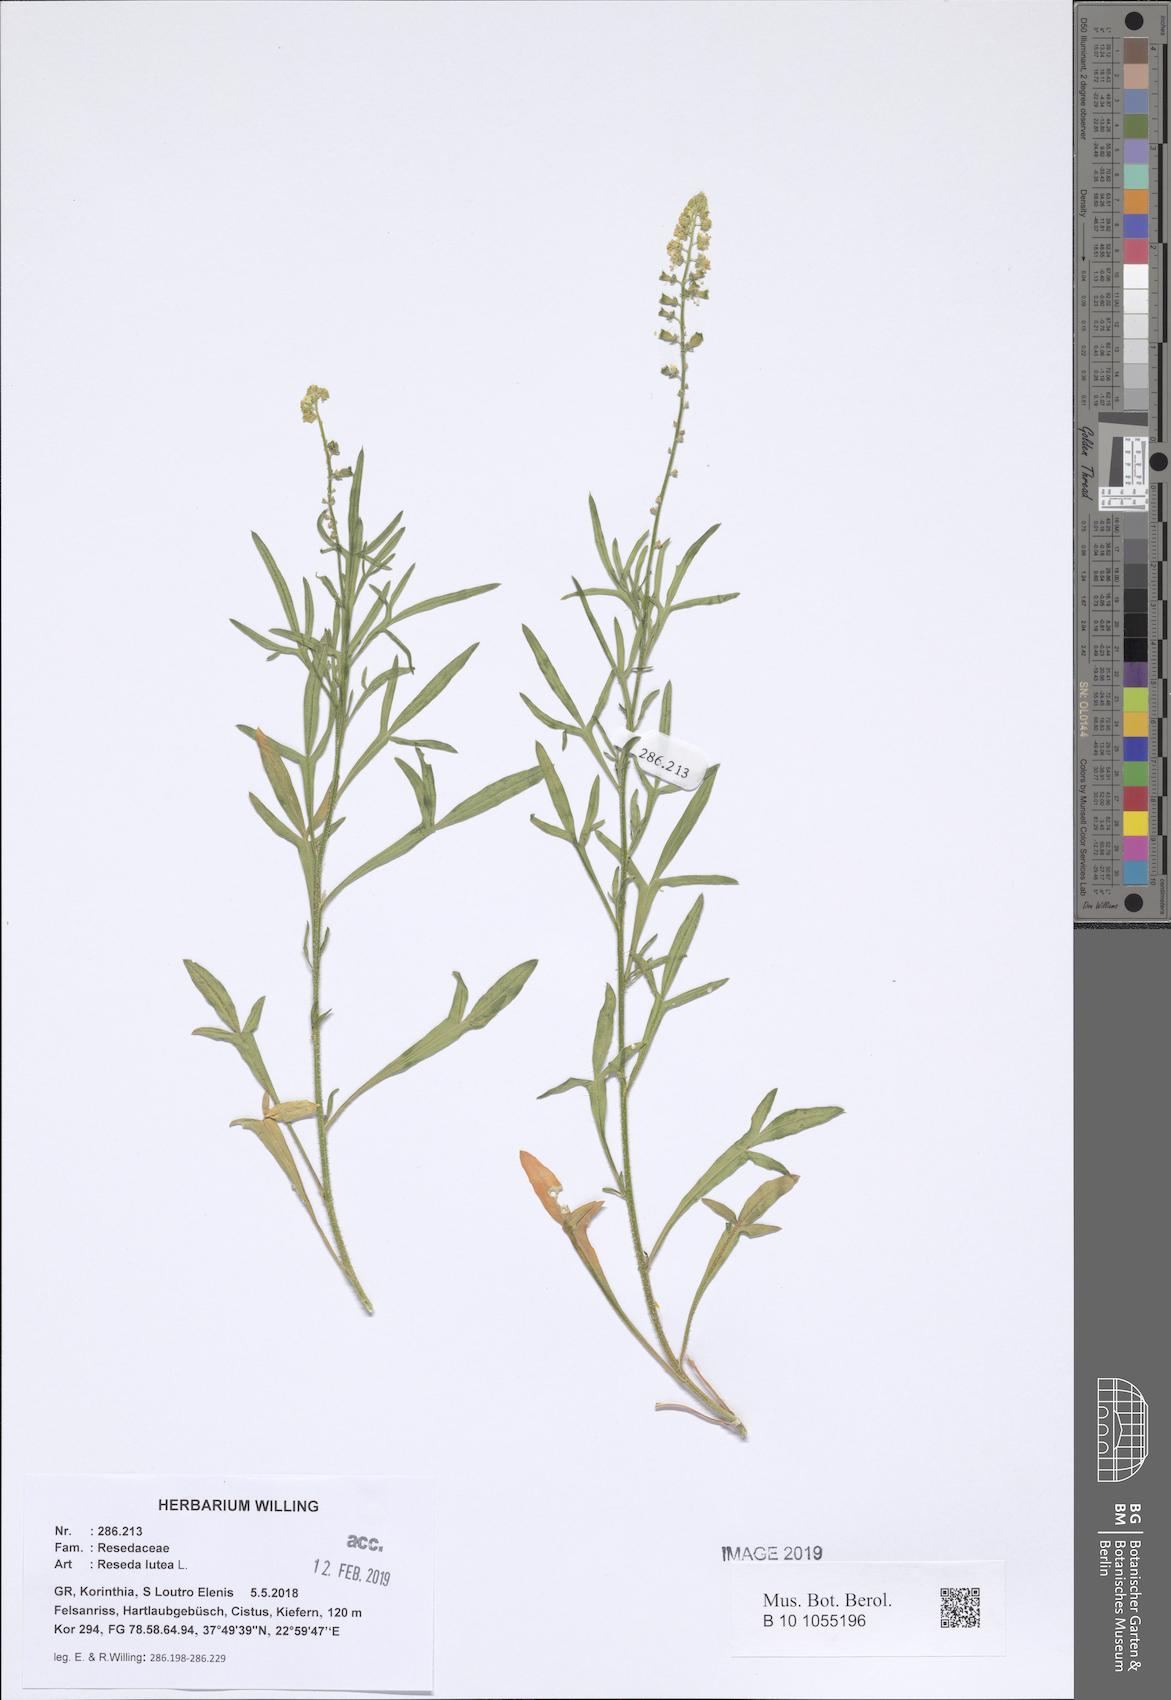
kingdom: Plantae
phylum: Tracheophyta
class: Magnoliopsida
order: Brassicales
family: Resedaceae
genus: Reseda
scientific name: Reseda lutea
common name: Wild mignonette
